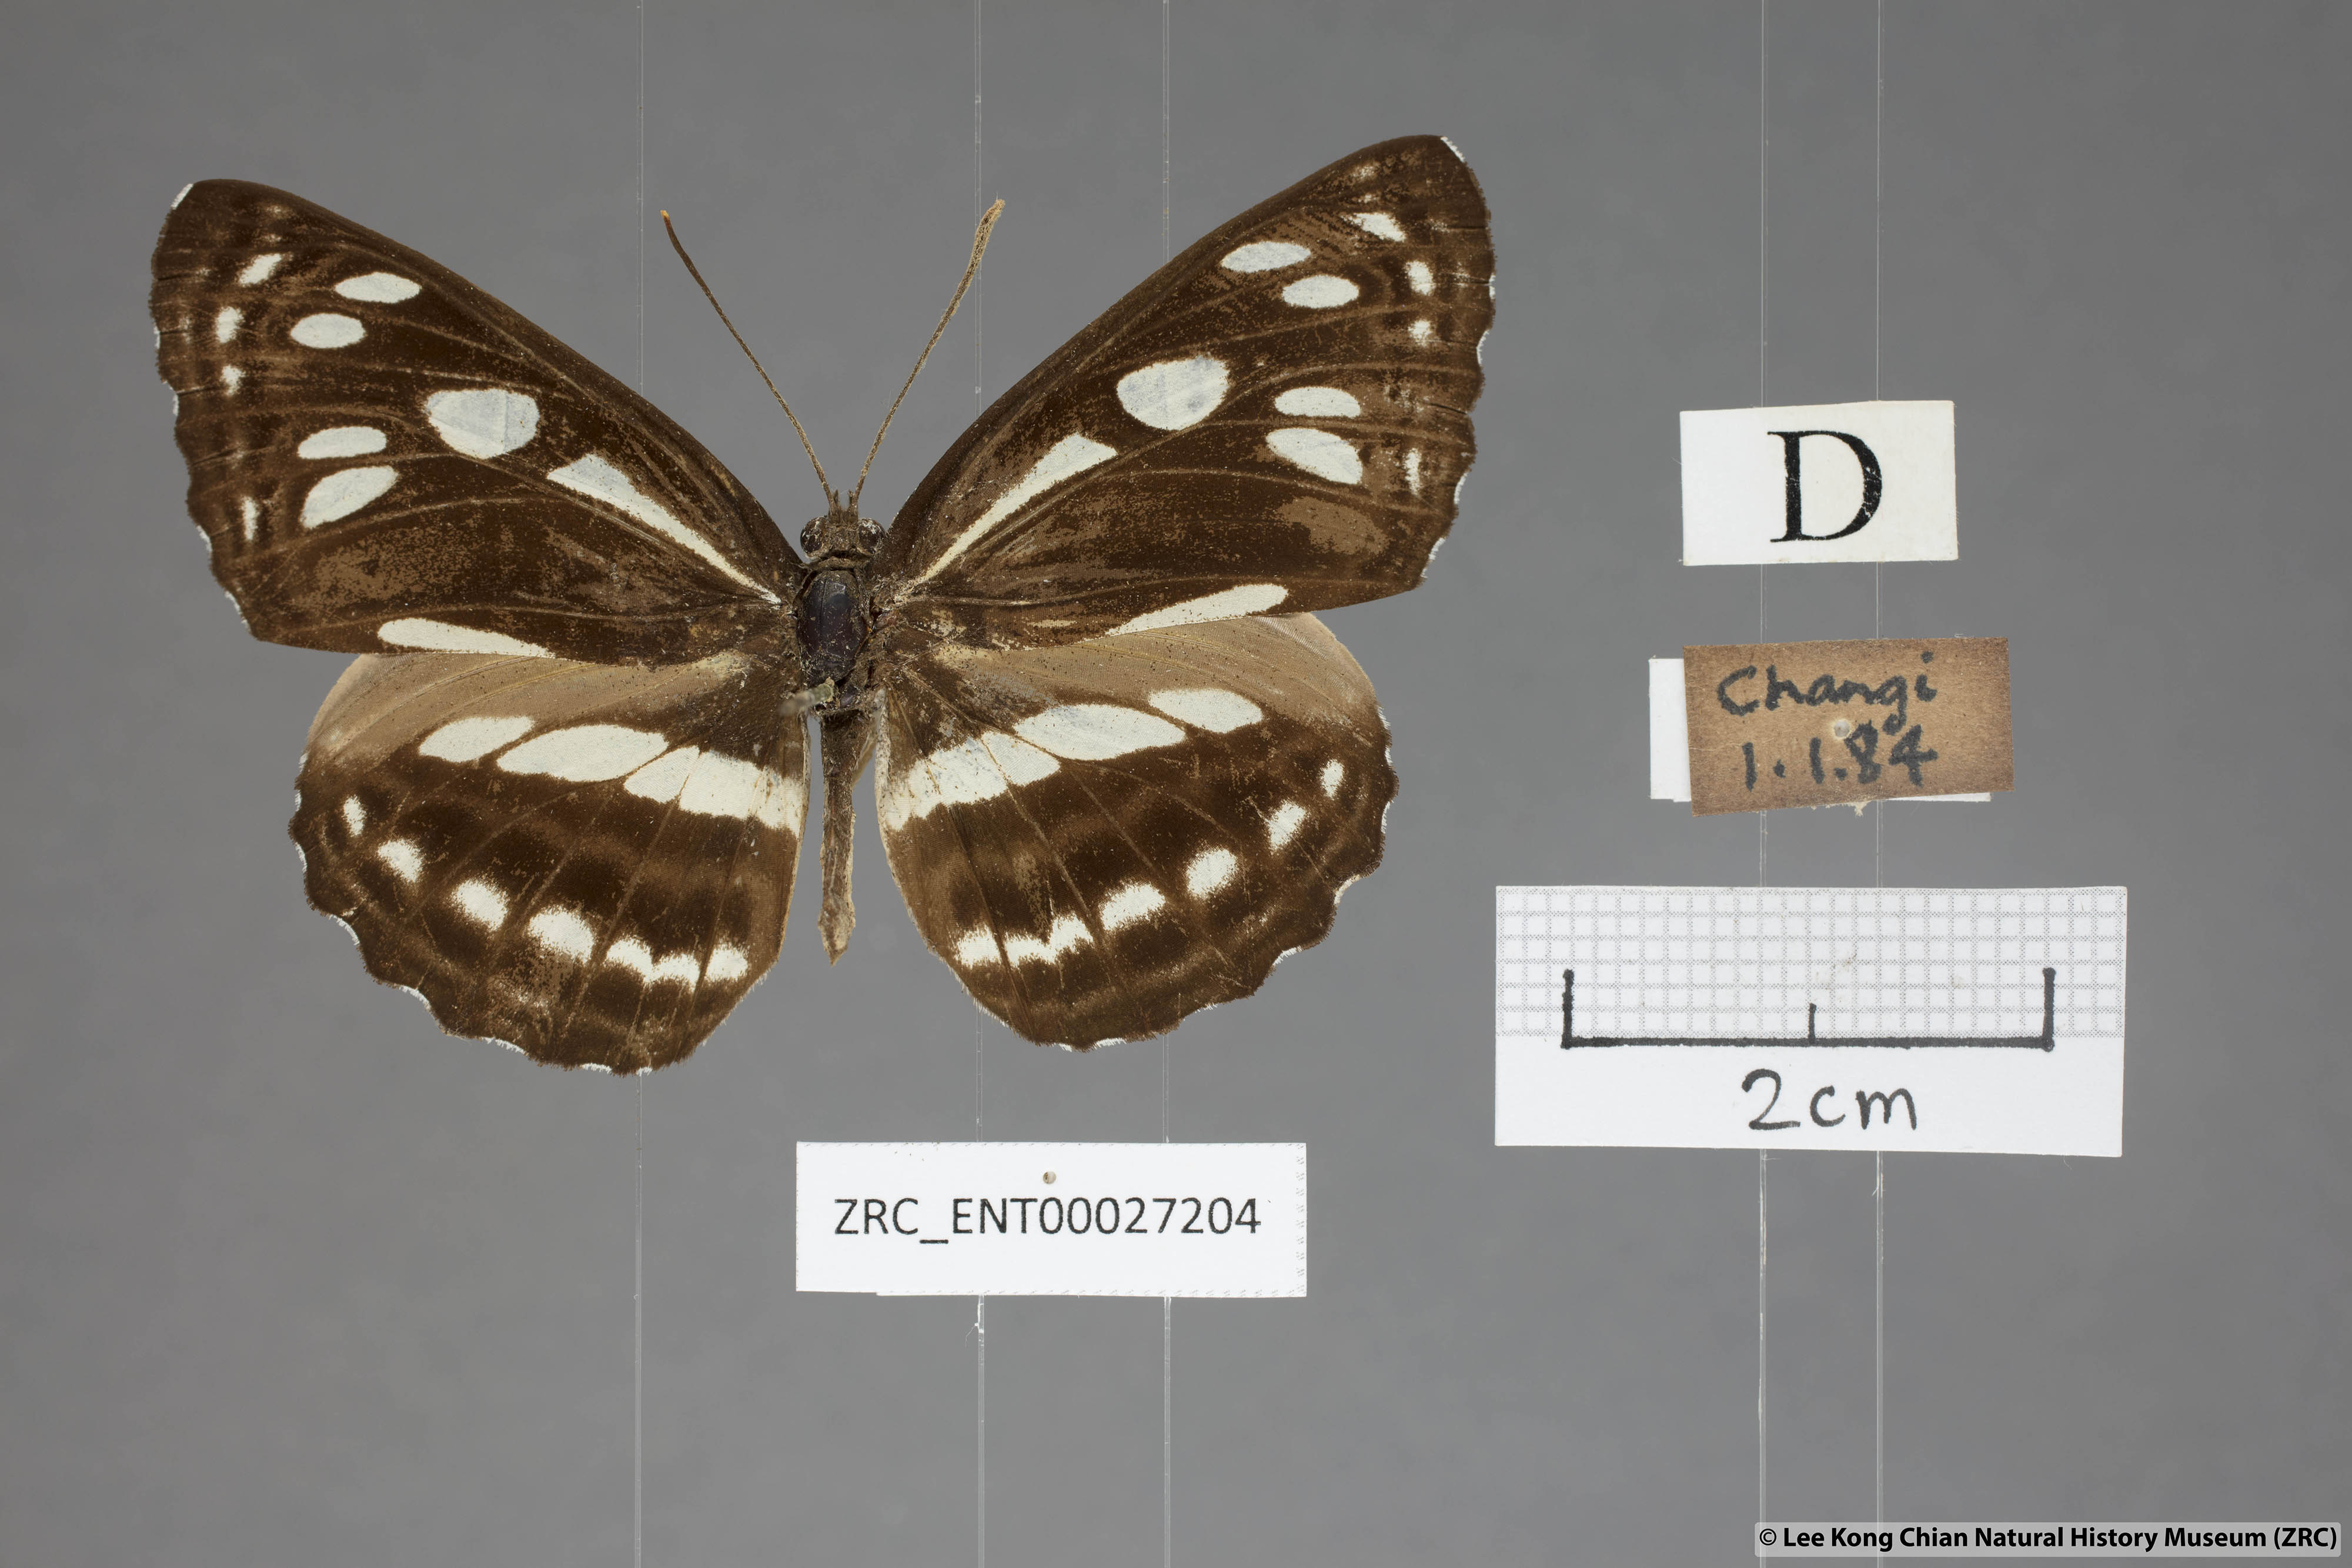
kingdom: Animalia
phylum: Arthropoda
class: Insecta
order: Lepidoptera
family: Nymphalidae
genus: Phaedyma
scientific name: Phaedyma columella
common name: Short banded sailer
